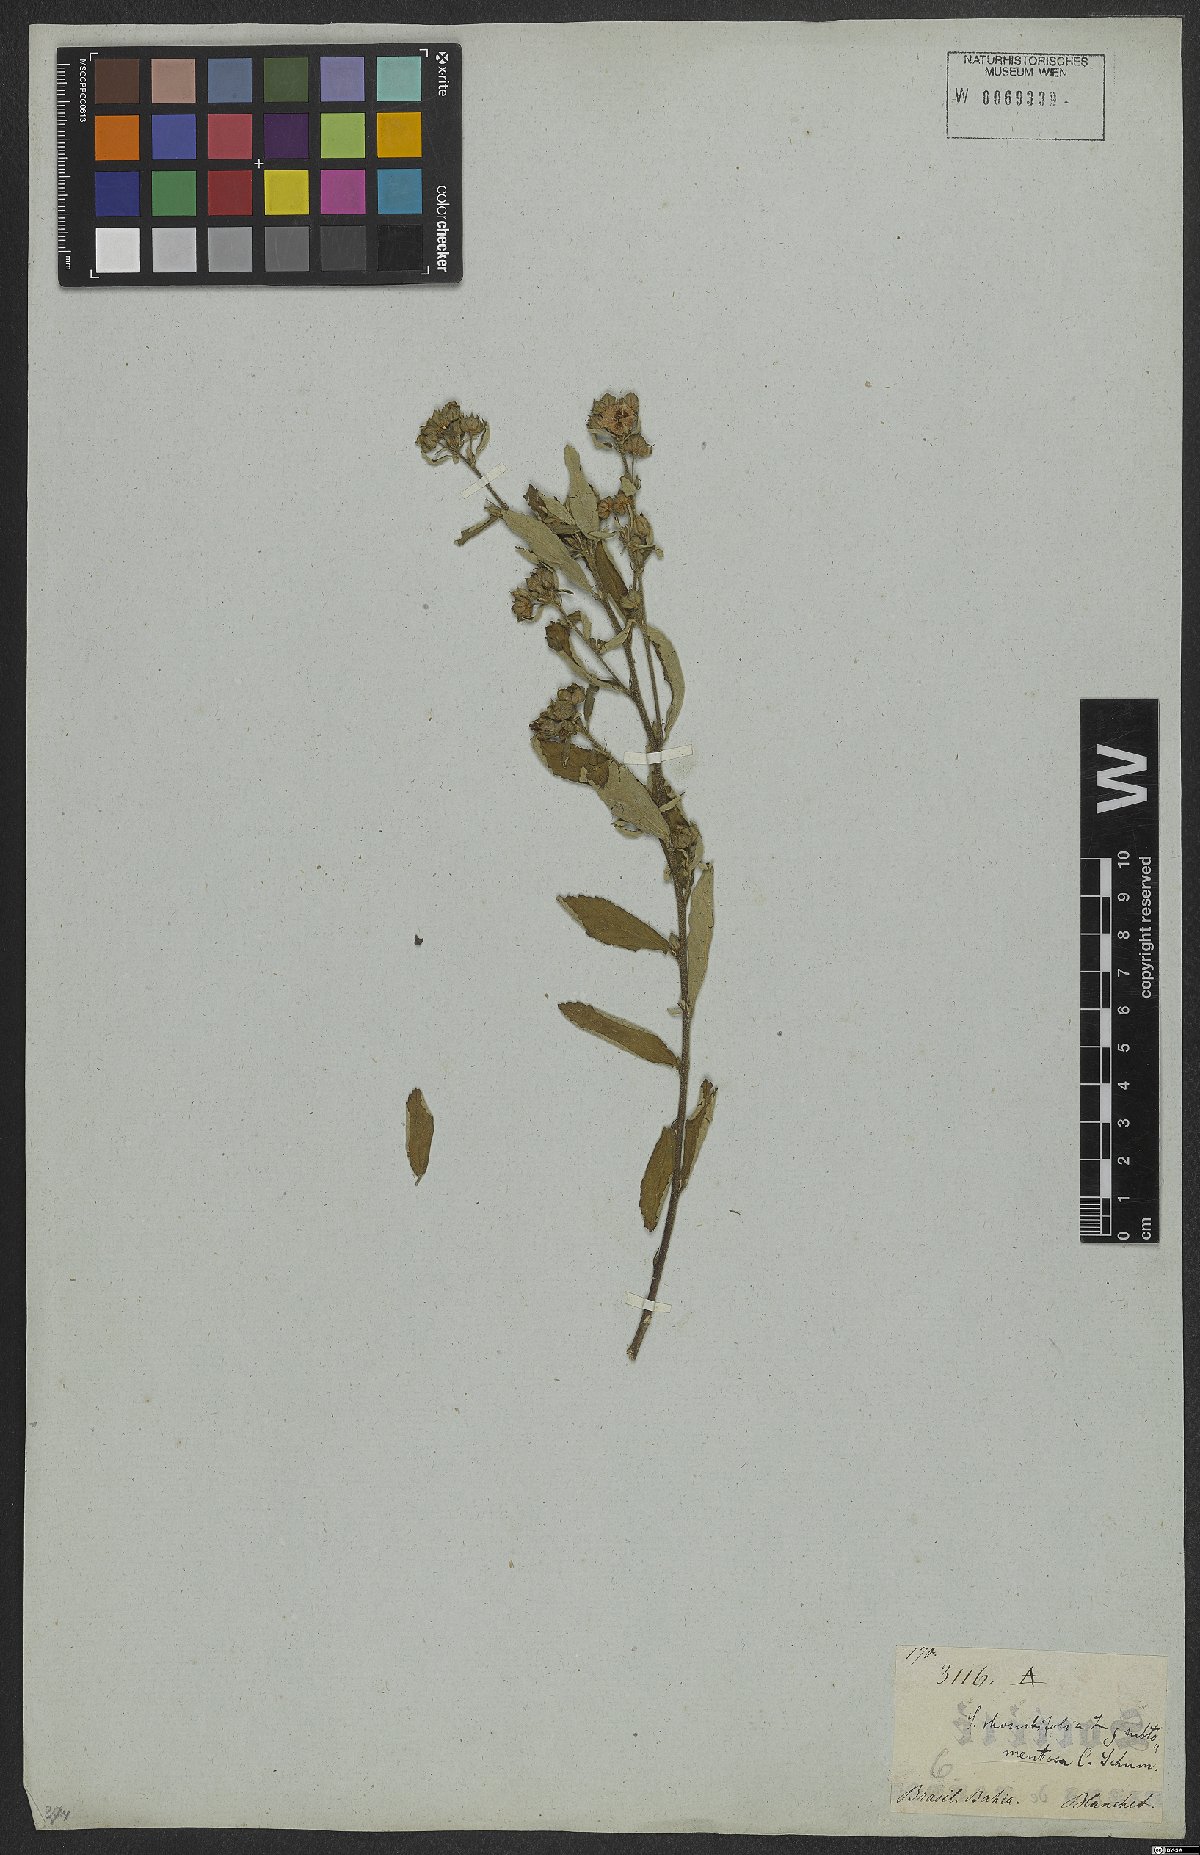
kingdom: Plantae
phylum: Tracheophyta
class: Magnoliopsida
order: Malvales
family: Malvaceae
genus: Sida
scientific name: Sida rhombifolia
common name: Queensland-hemp
